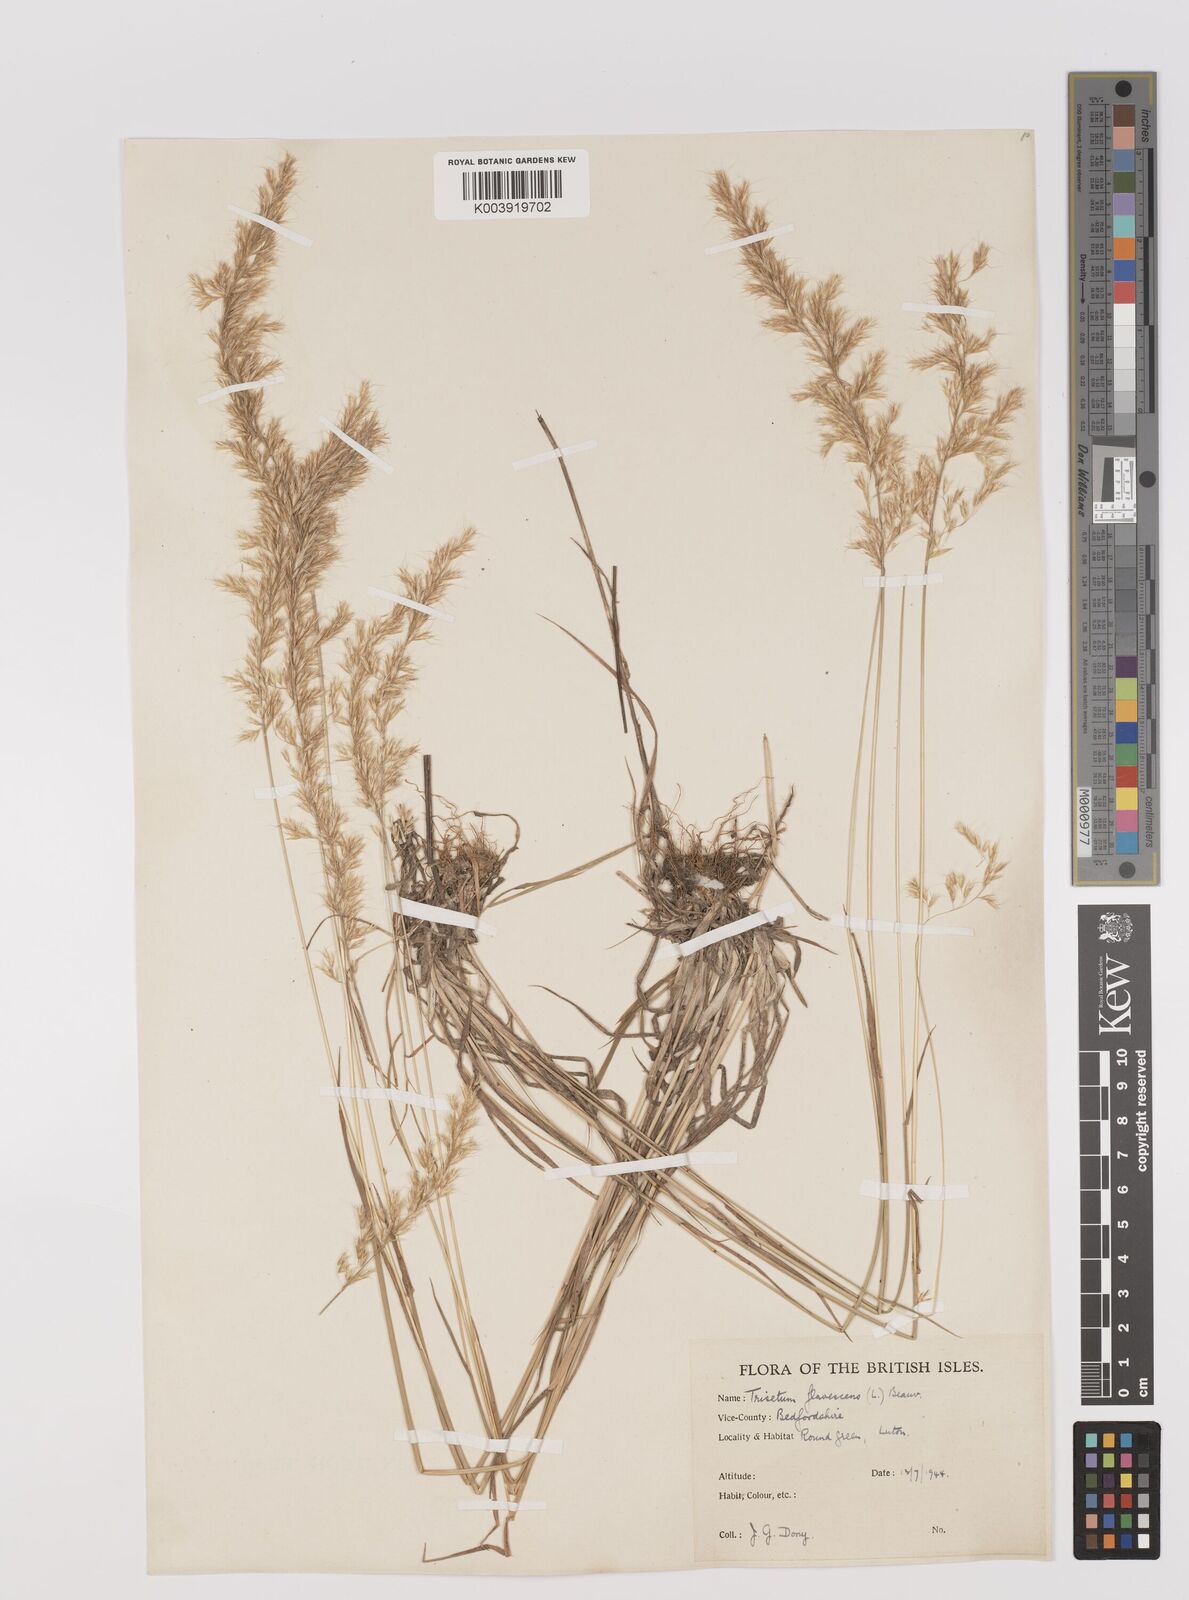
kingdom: Plantae
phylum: Tracheophyta
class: Liliopsida
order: Poales
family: Poaceae
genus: Trisetum
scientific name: Trisetum flavescens
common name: Yellow oat-grass
